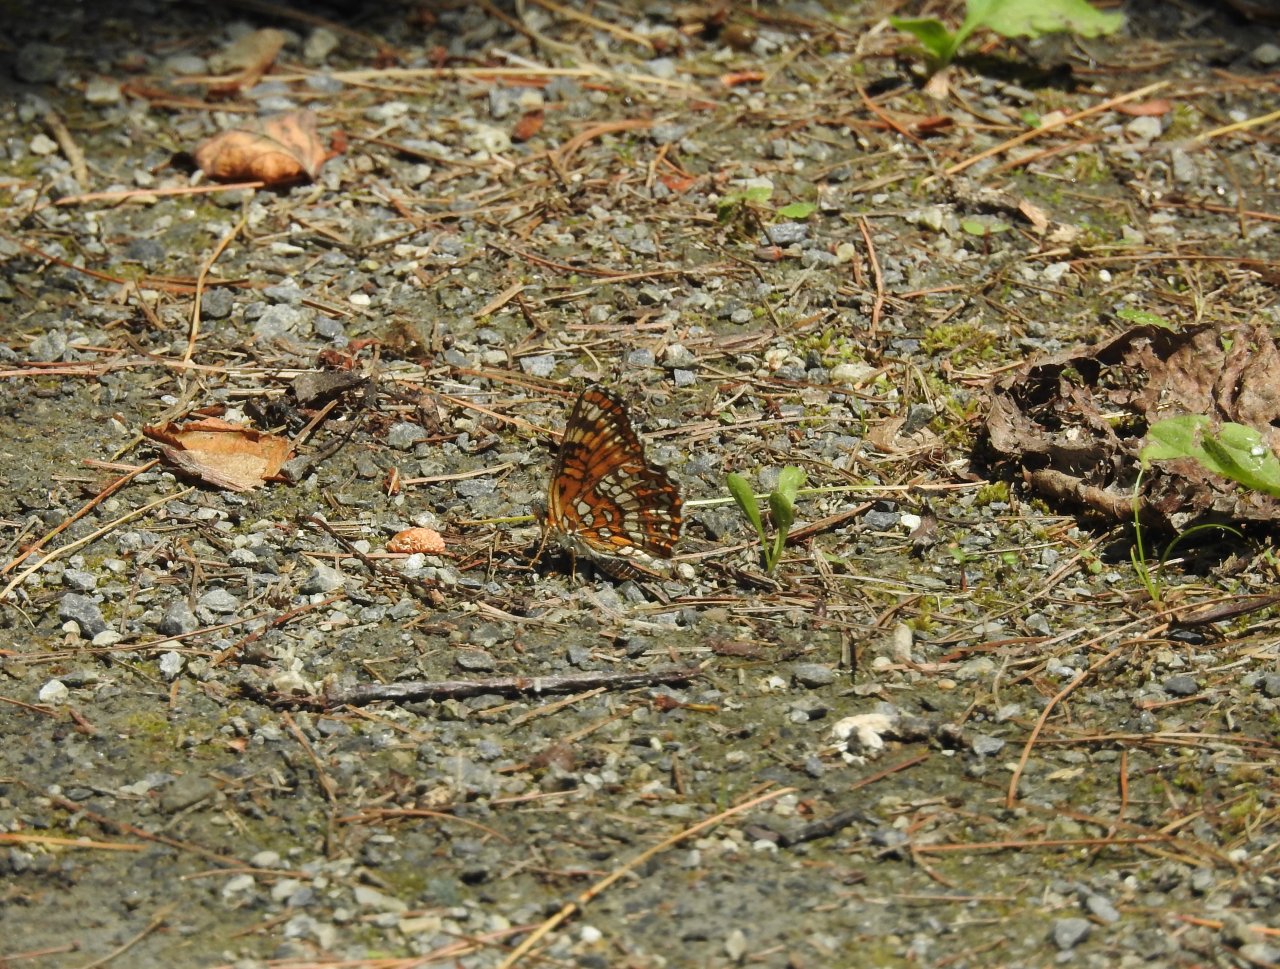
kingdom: Animalia
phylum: Arthropoda
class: Insecta
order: Lepidoptera
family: Nymphalidae
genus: Chlosyne
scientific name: Chlosyne harrisii
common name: Harris's Checkerspot
